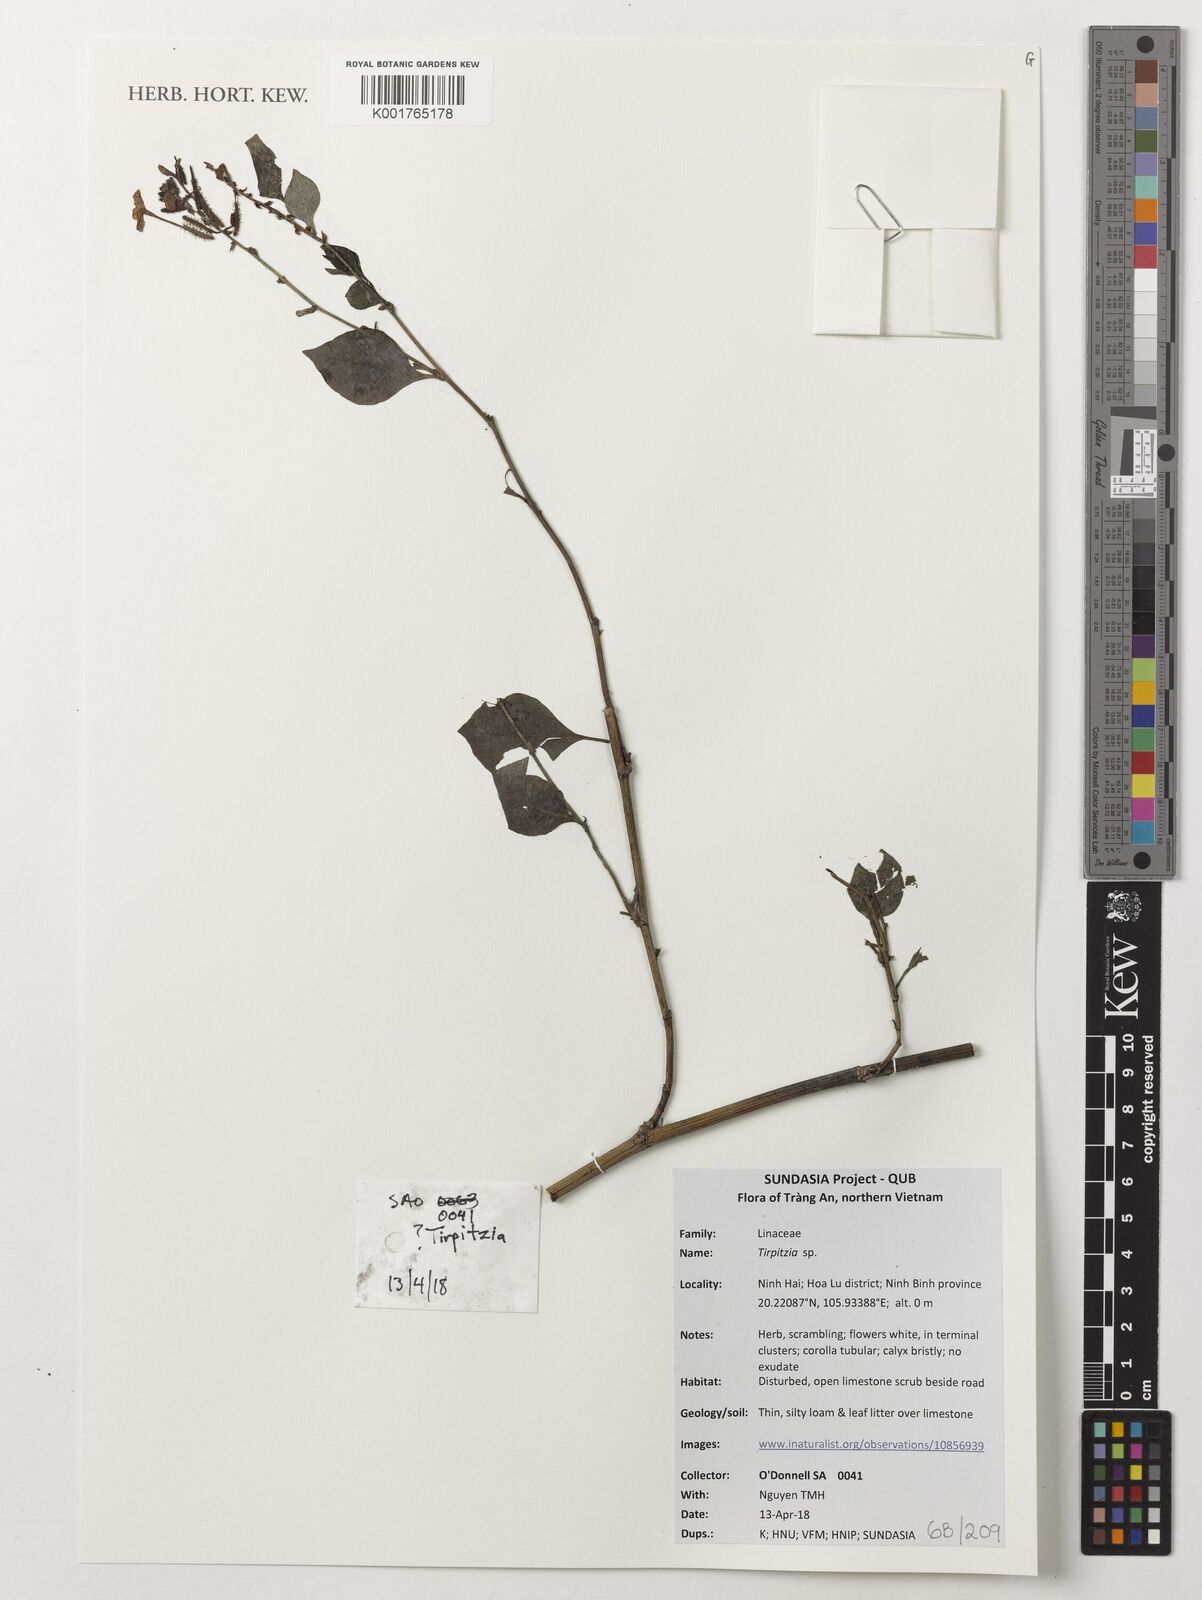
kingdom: Plantae
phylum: Tracheophyta
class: Magnoliopsida
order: Malpighiales
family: Linaceae
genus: Tirpitzia
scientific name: Tirpitzia
